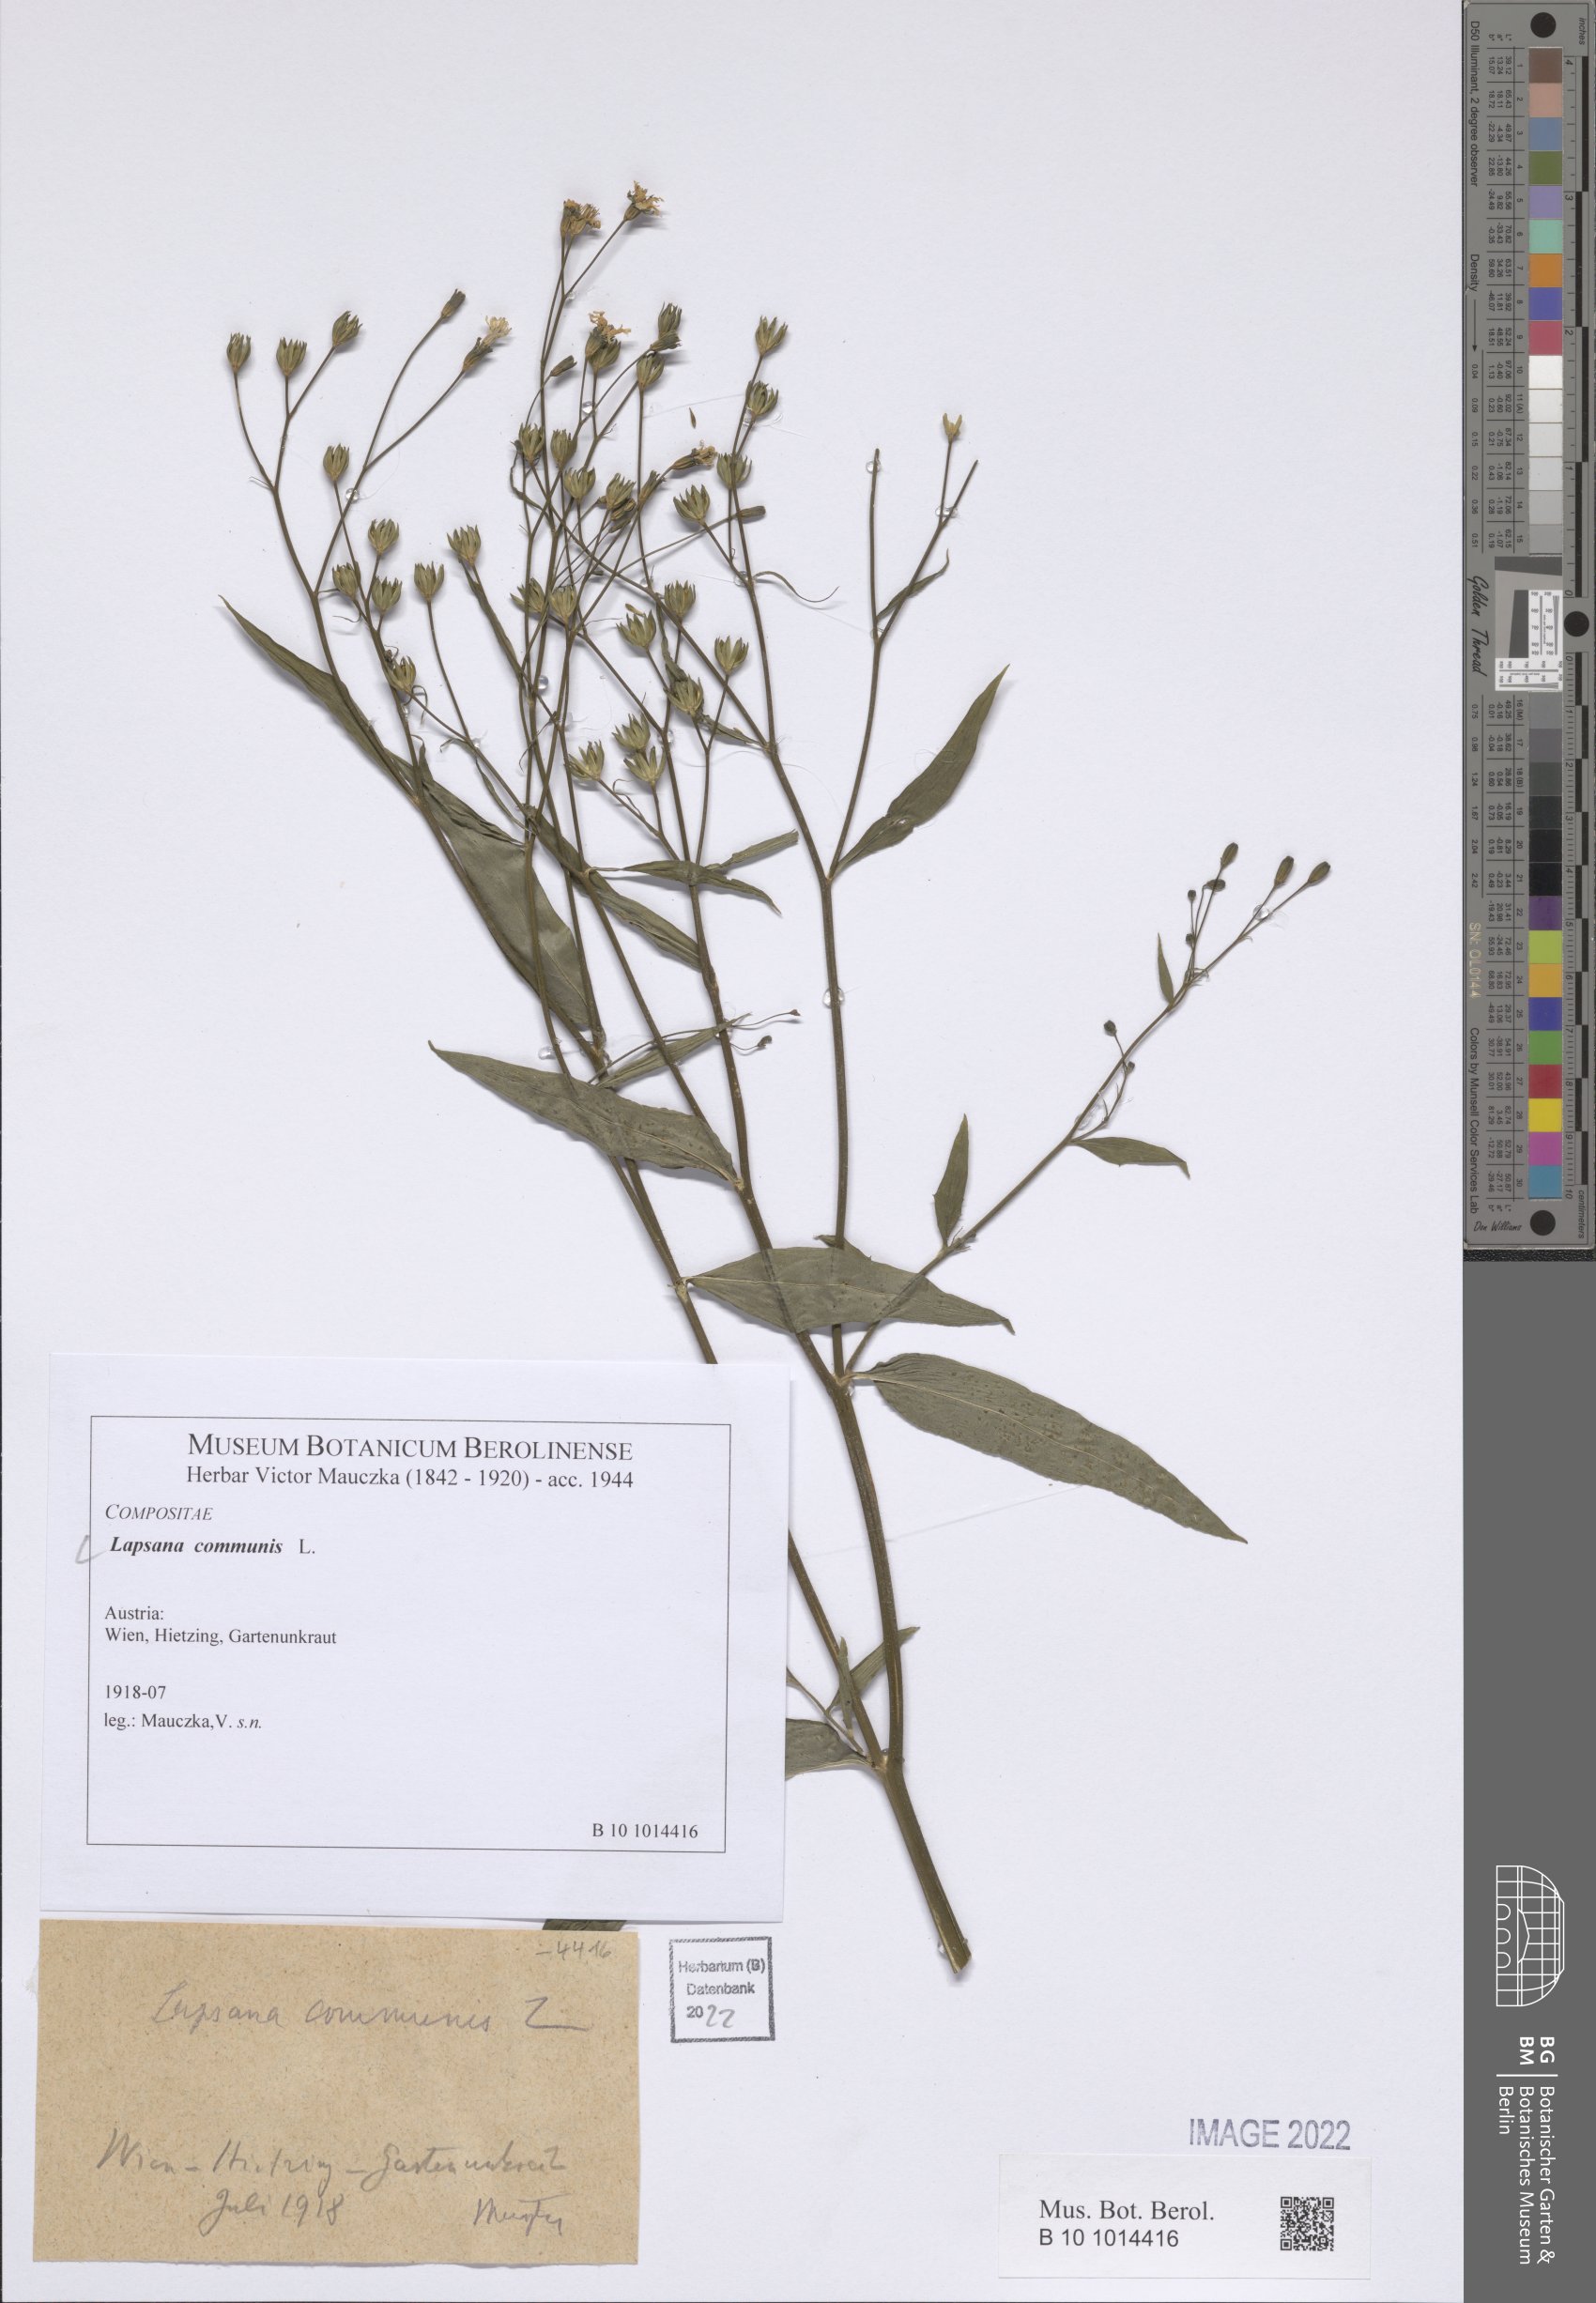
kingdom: Plantae
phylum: Tracheophyta
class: Magnoliopsida
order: Asterales
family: Asteraceae
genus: Lapsana
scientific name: Lapsana communis
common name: Nipplewort
